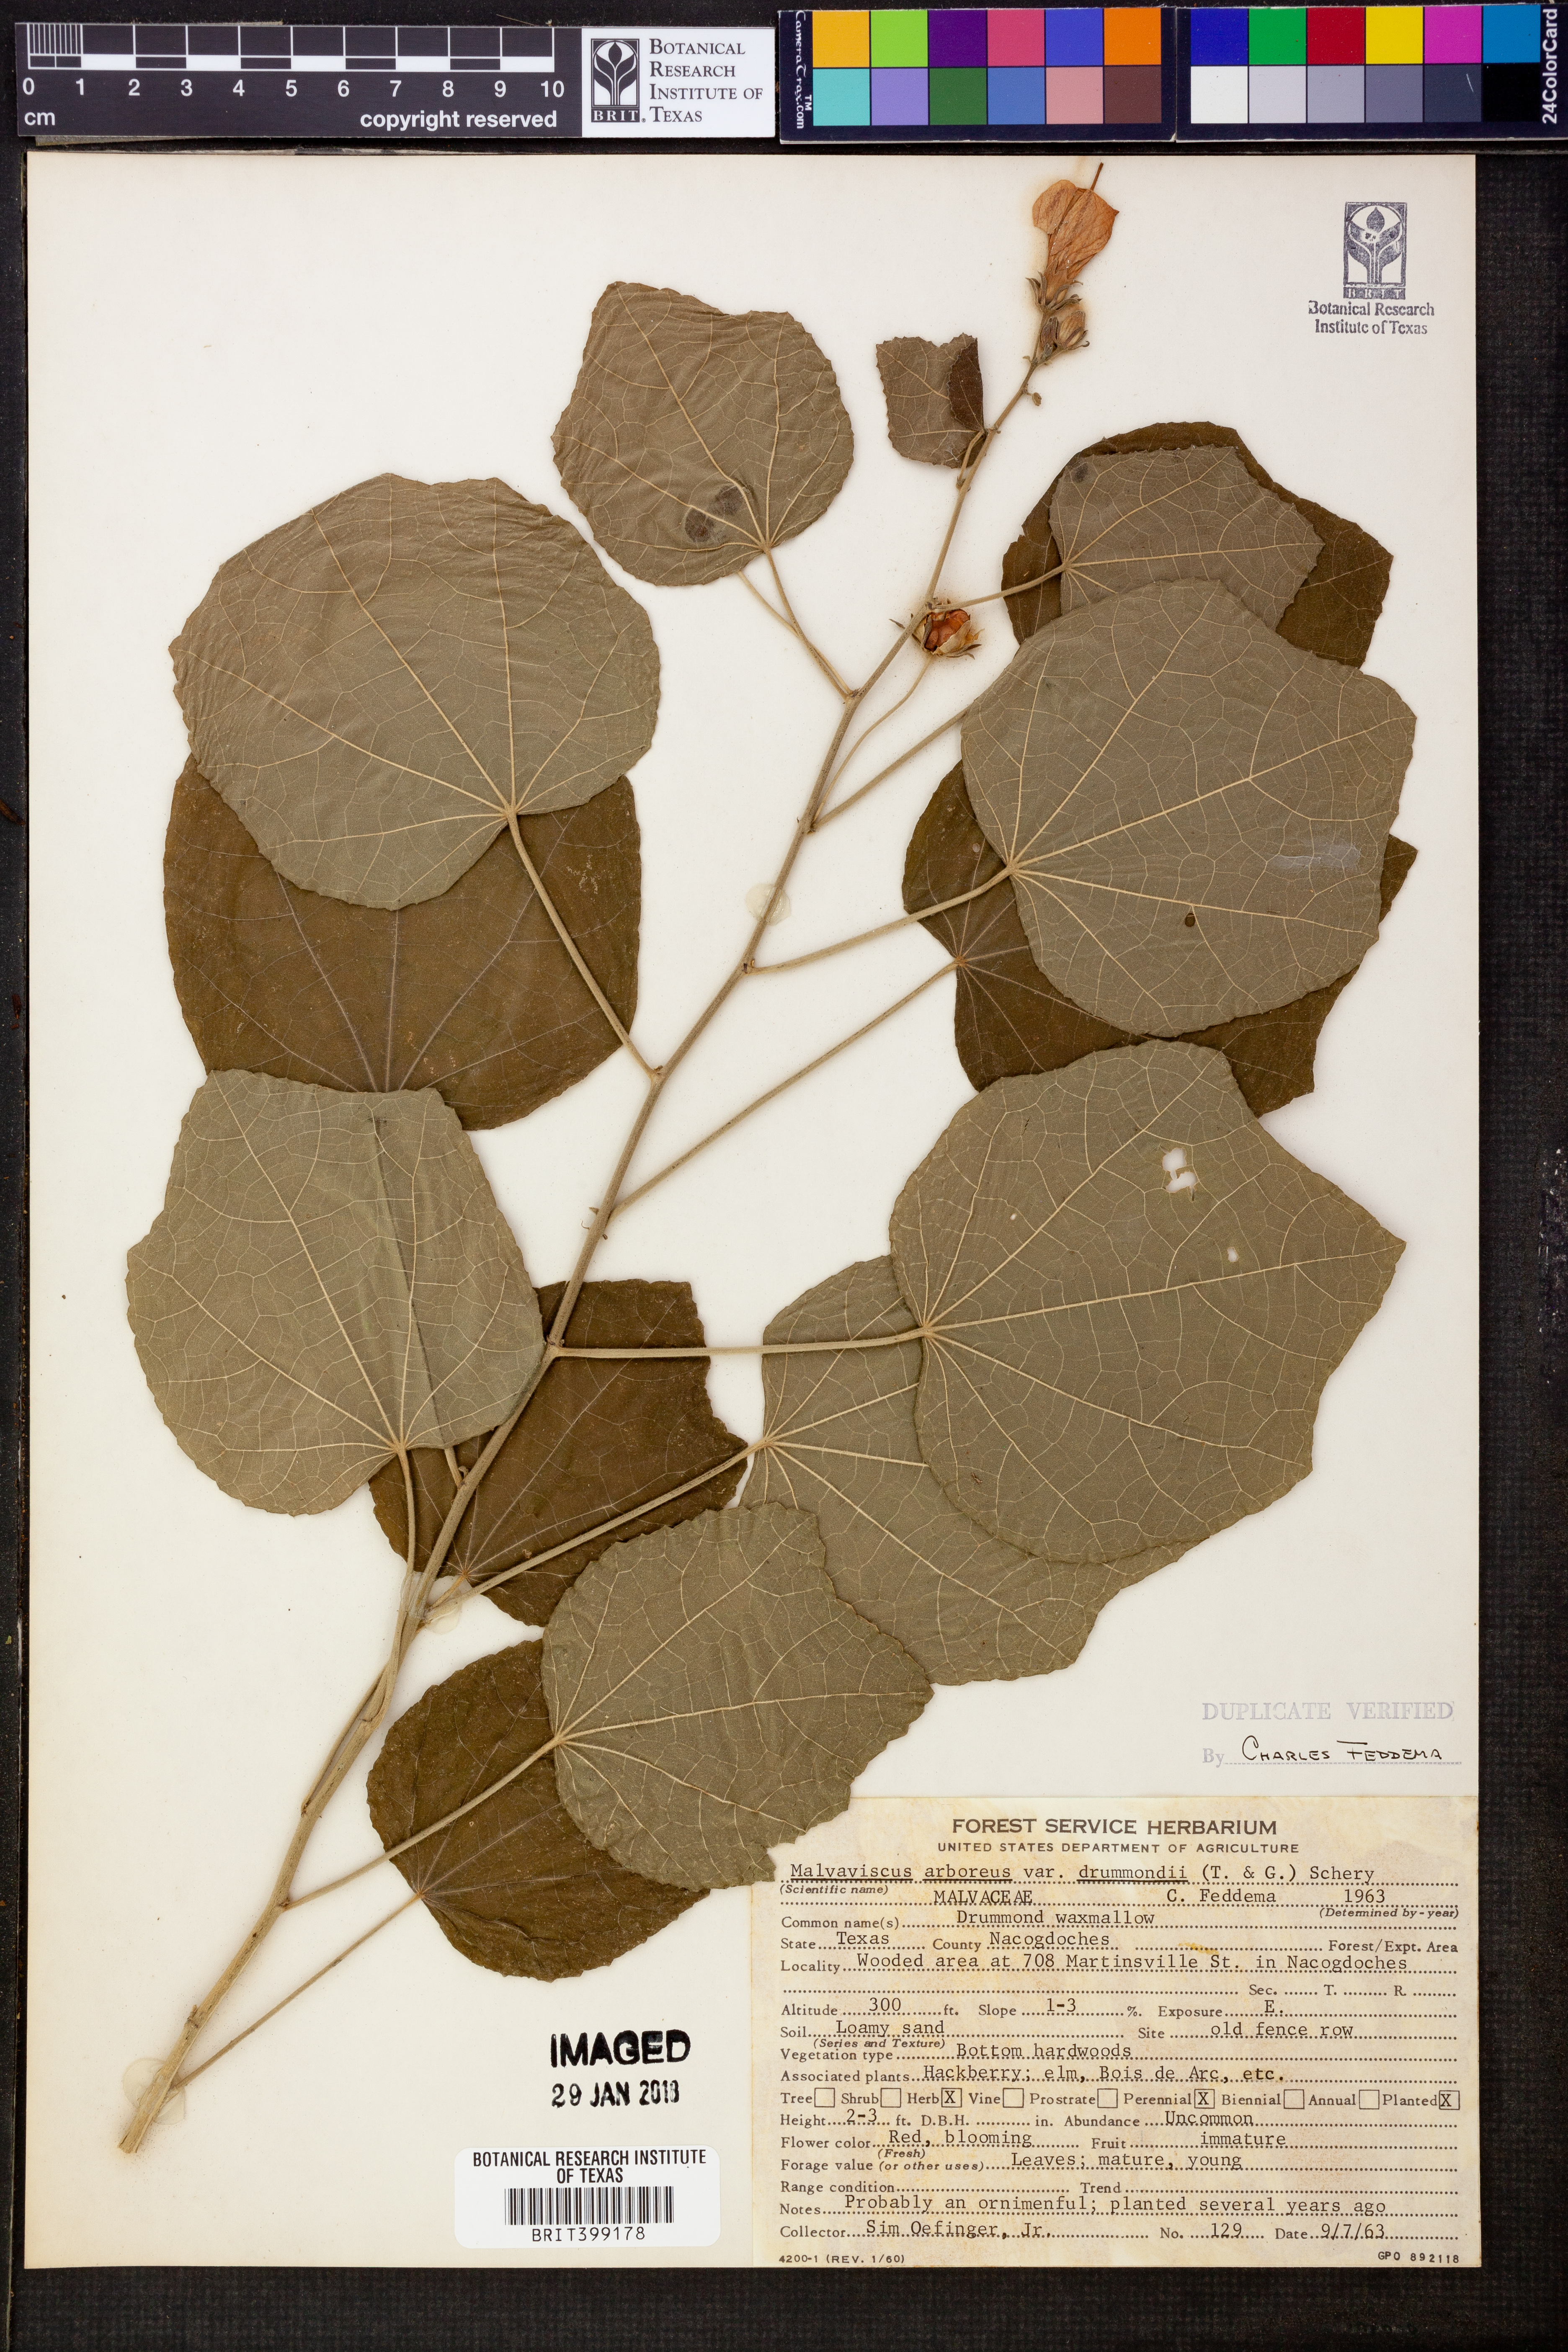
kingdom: Plantae
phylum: Tracheophyta
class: Magnoliopsida
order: Malvales
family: Malvaceae
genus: Malvaviscus
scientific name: Malvaviscus arboreus
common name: Wax mallow
